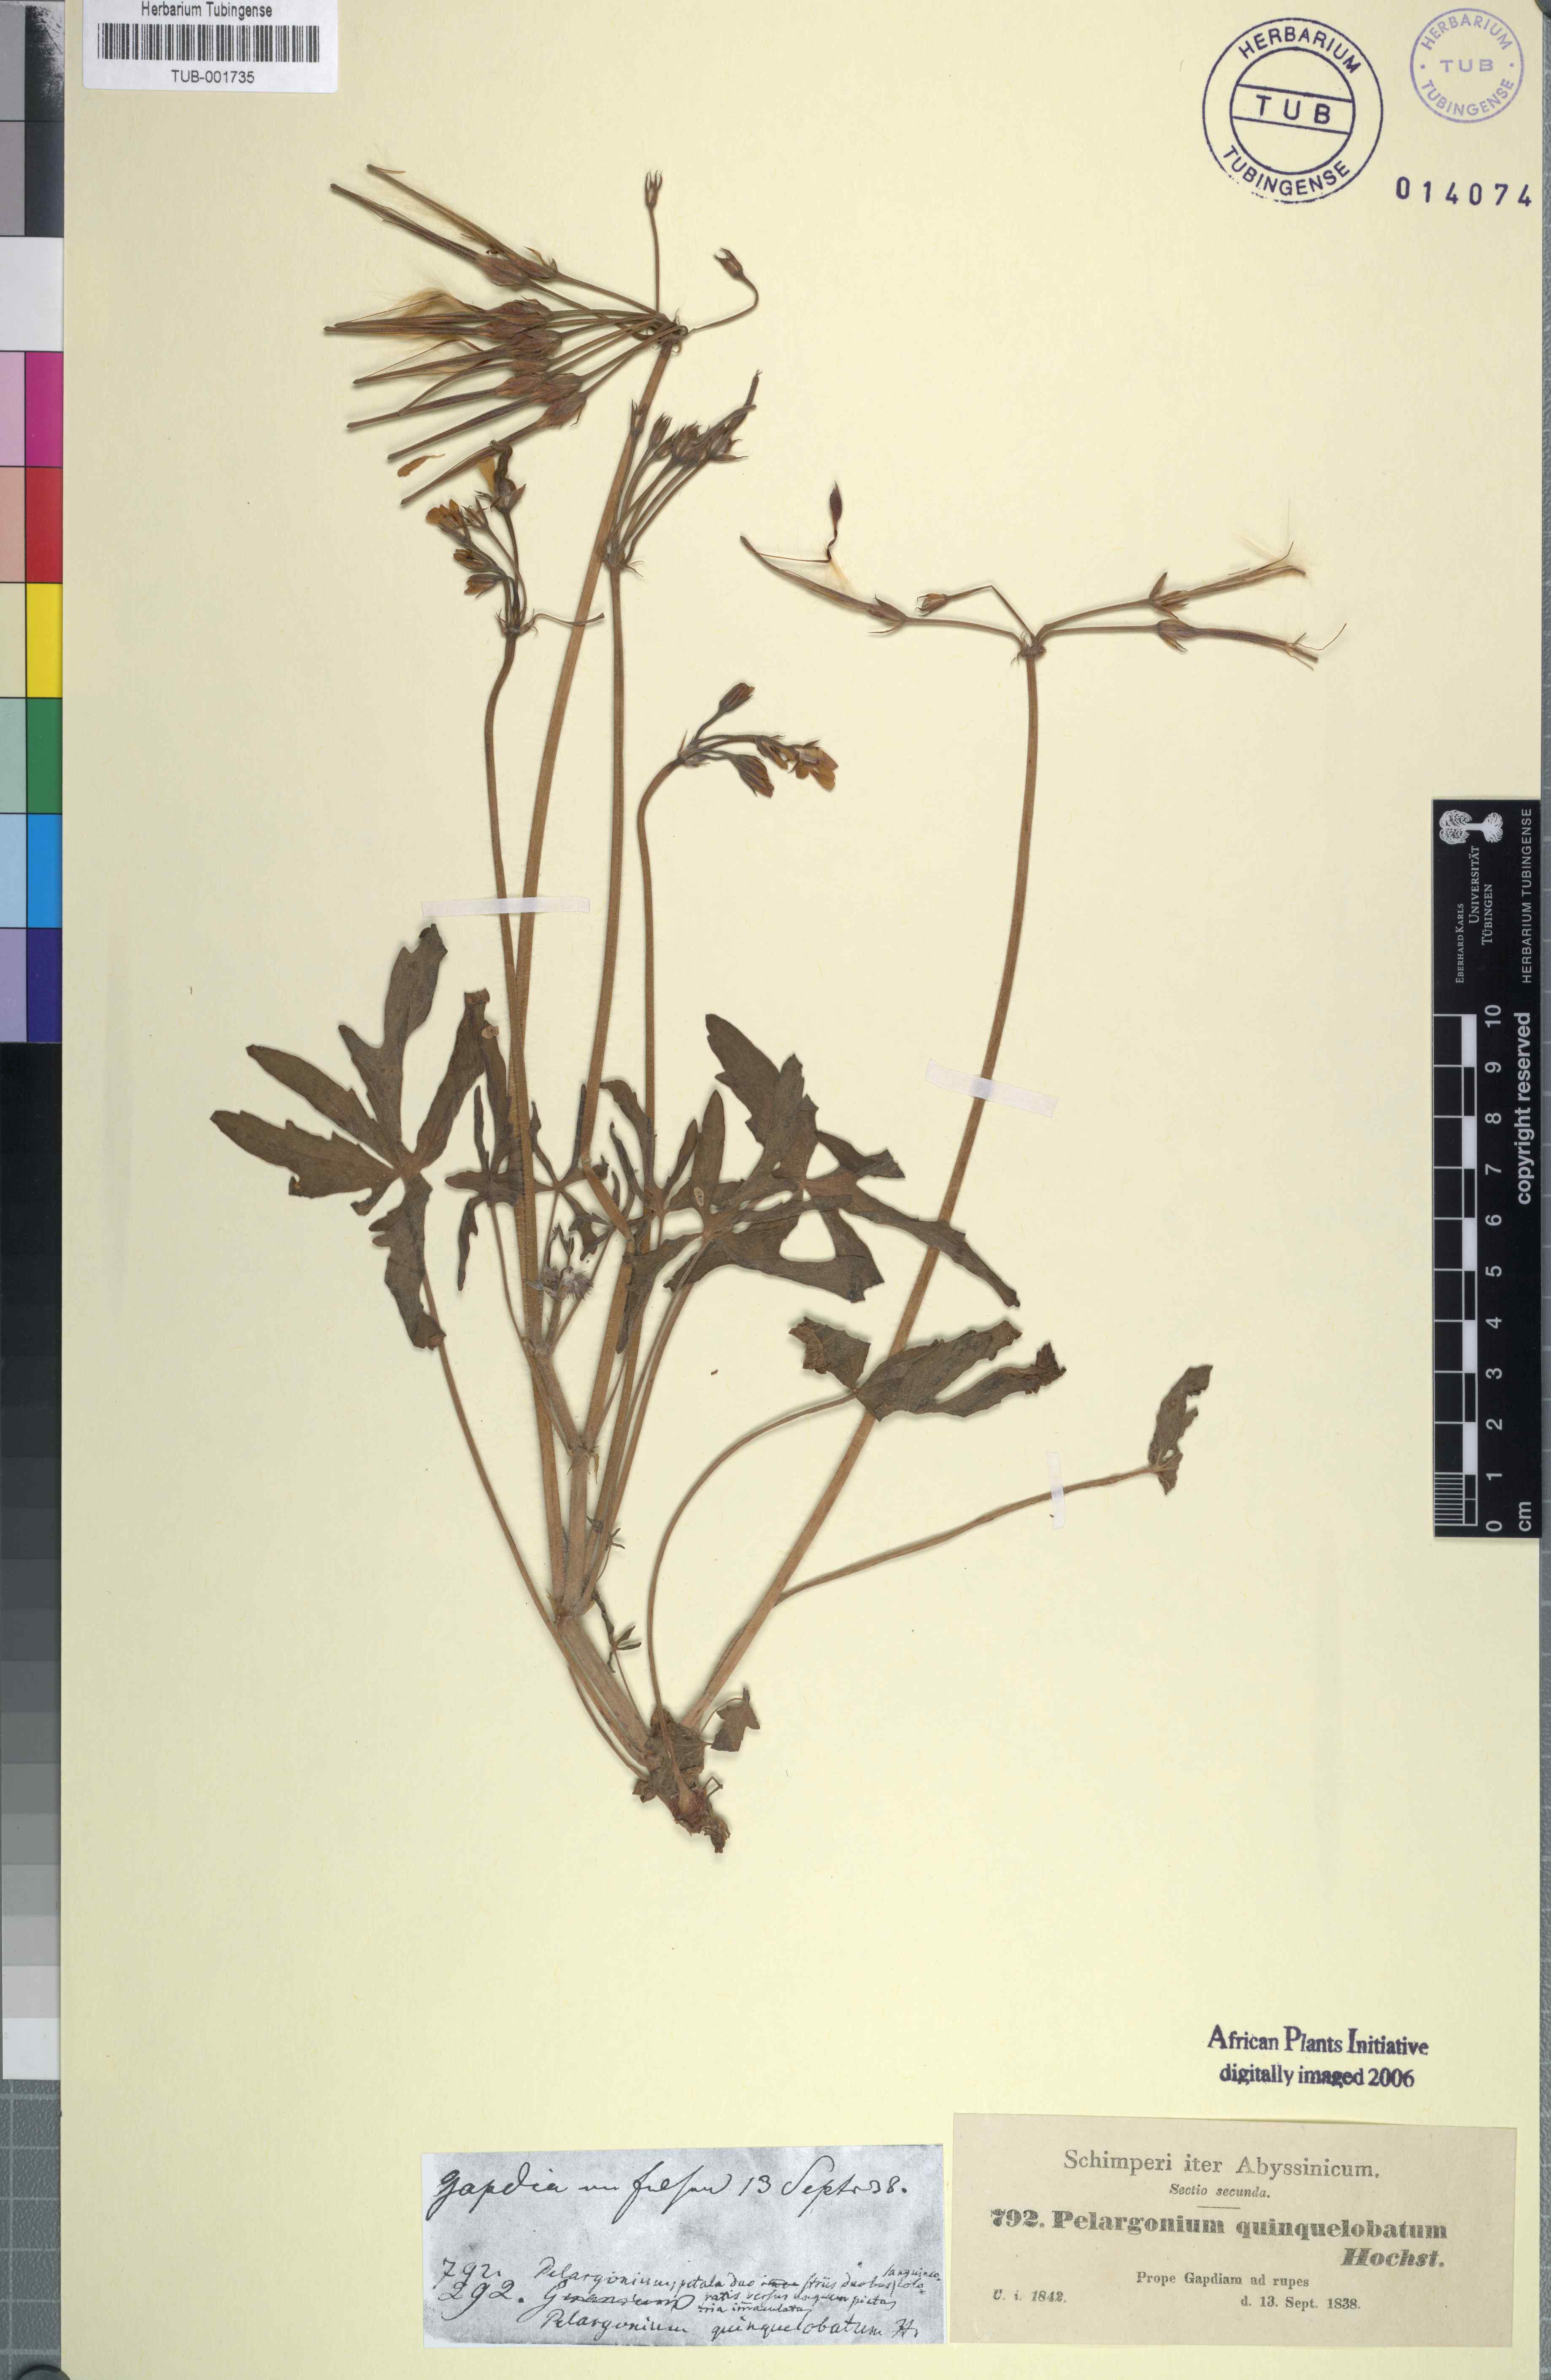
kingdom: Plantae
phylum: Tracheophyta
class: Magnoliopsida
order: Geraniales
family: Geraniaceae
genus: Pelargonium
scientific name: Pelargonium quinquelobatum
